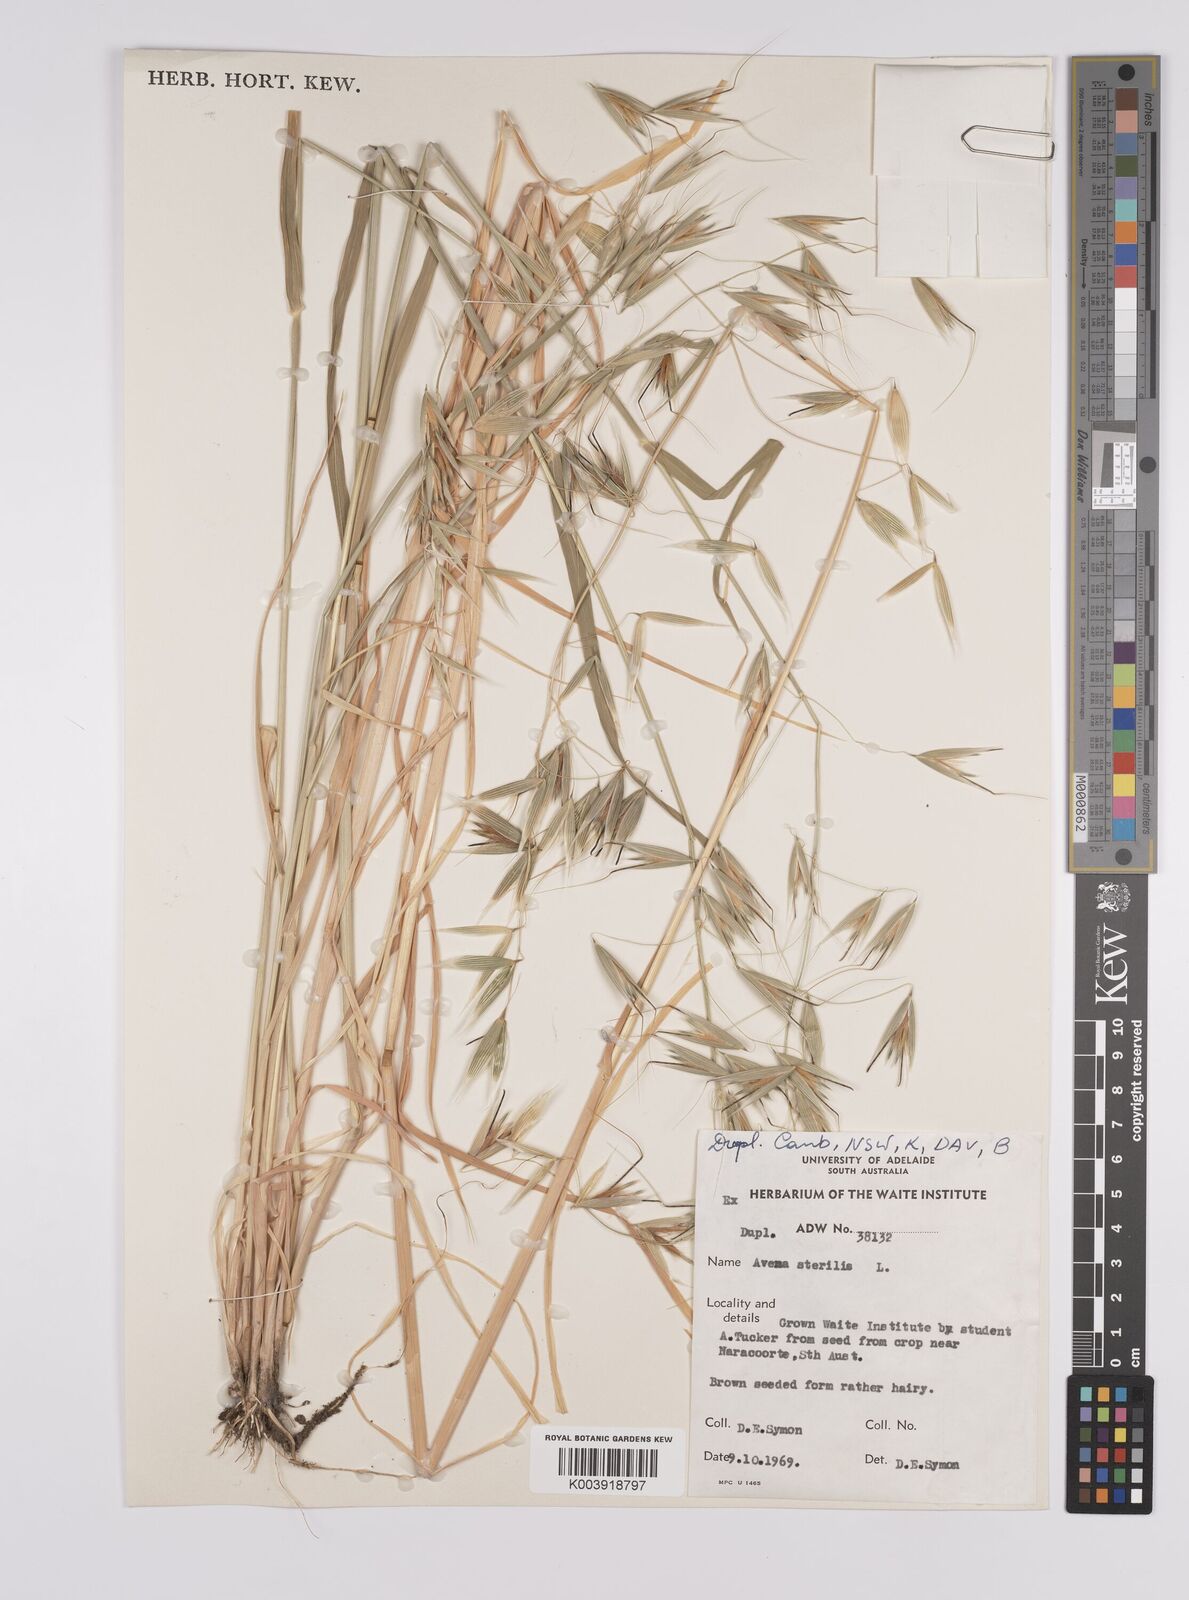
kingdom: Plantae
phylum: Tracheophyta
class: Liliopsida
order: Poales
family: Poaceae
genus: Avena
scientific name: Avena sterilis
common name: Animated oat
